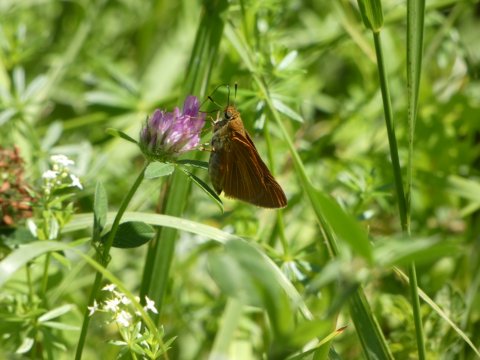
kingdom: Animalia
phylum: Arthropoda
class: Insecta
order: Lepidoptera
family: Hesperiidae
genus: Euphyes
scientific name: Euphyes dion
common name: Dion Skipper
